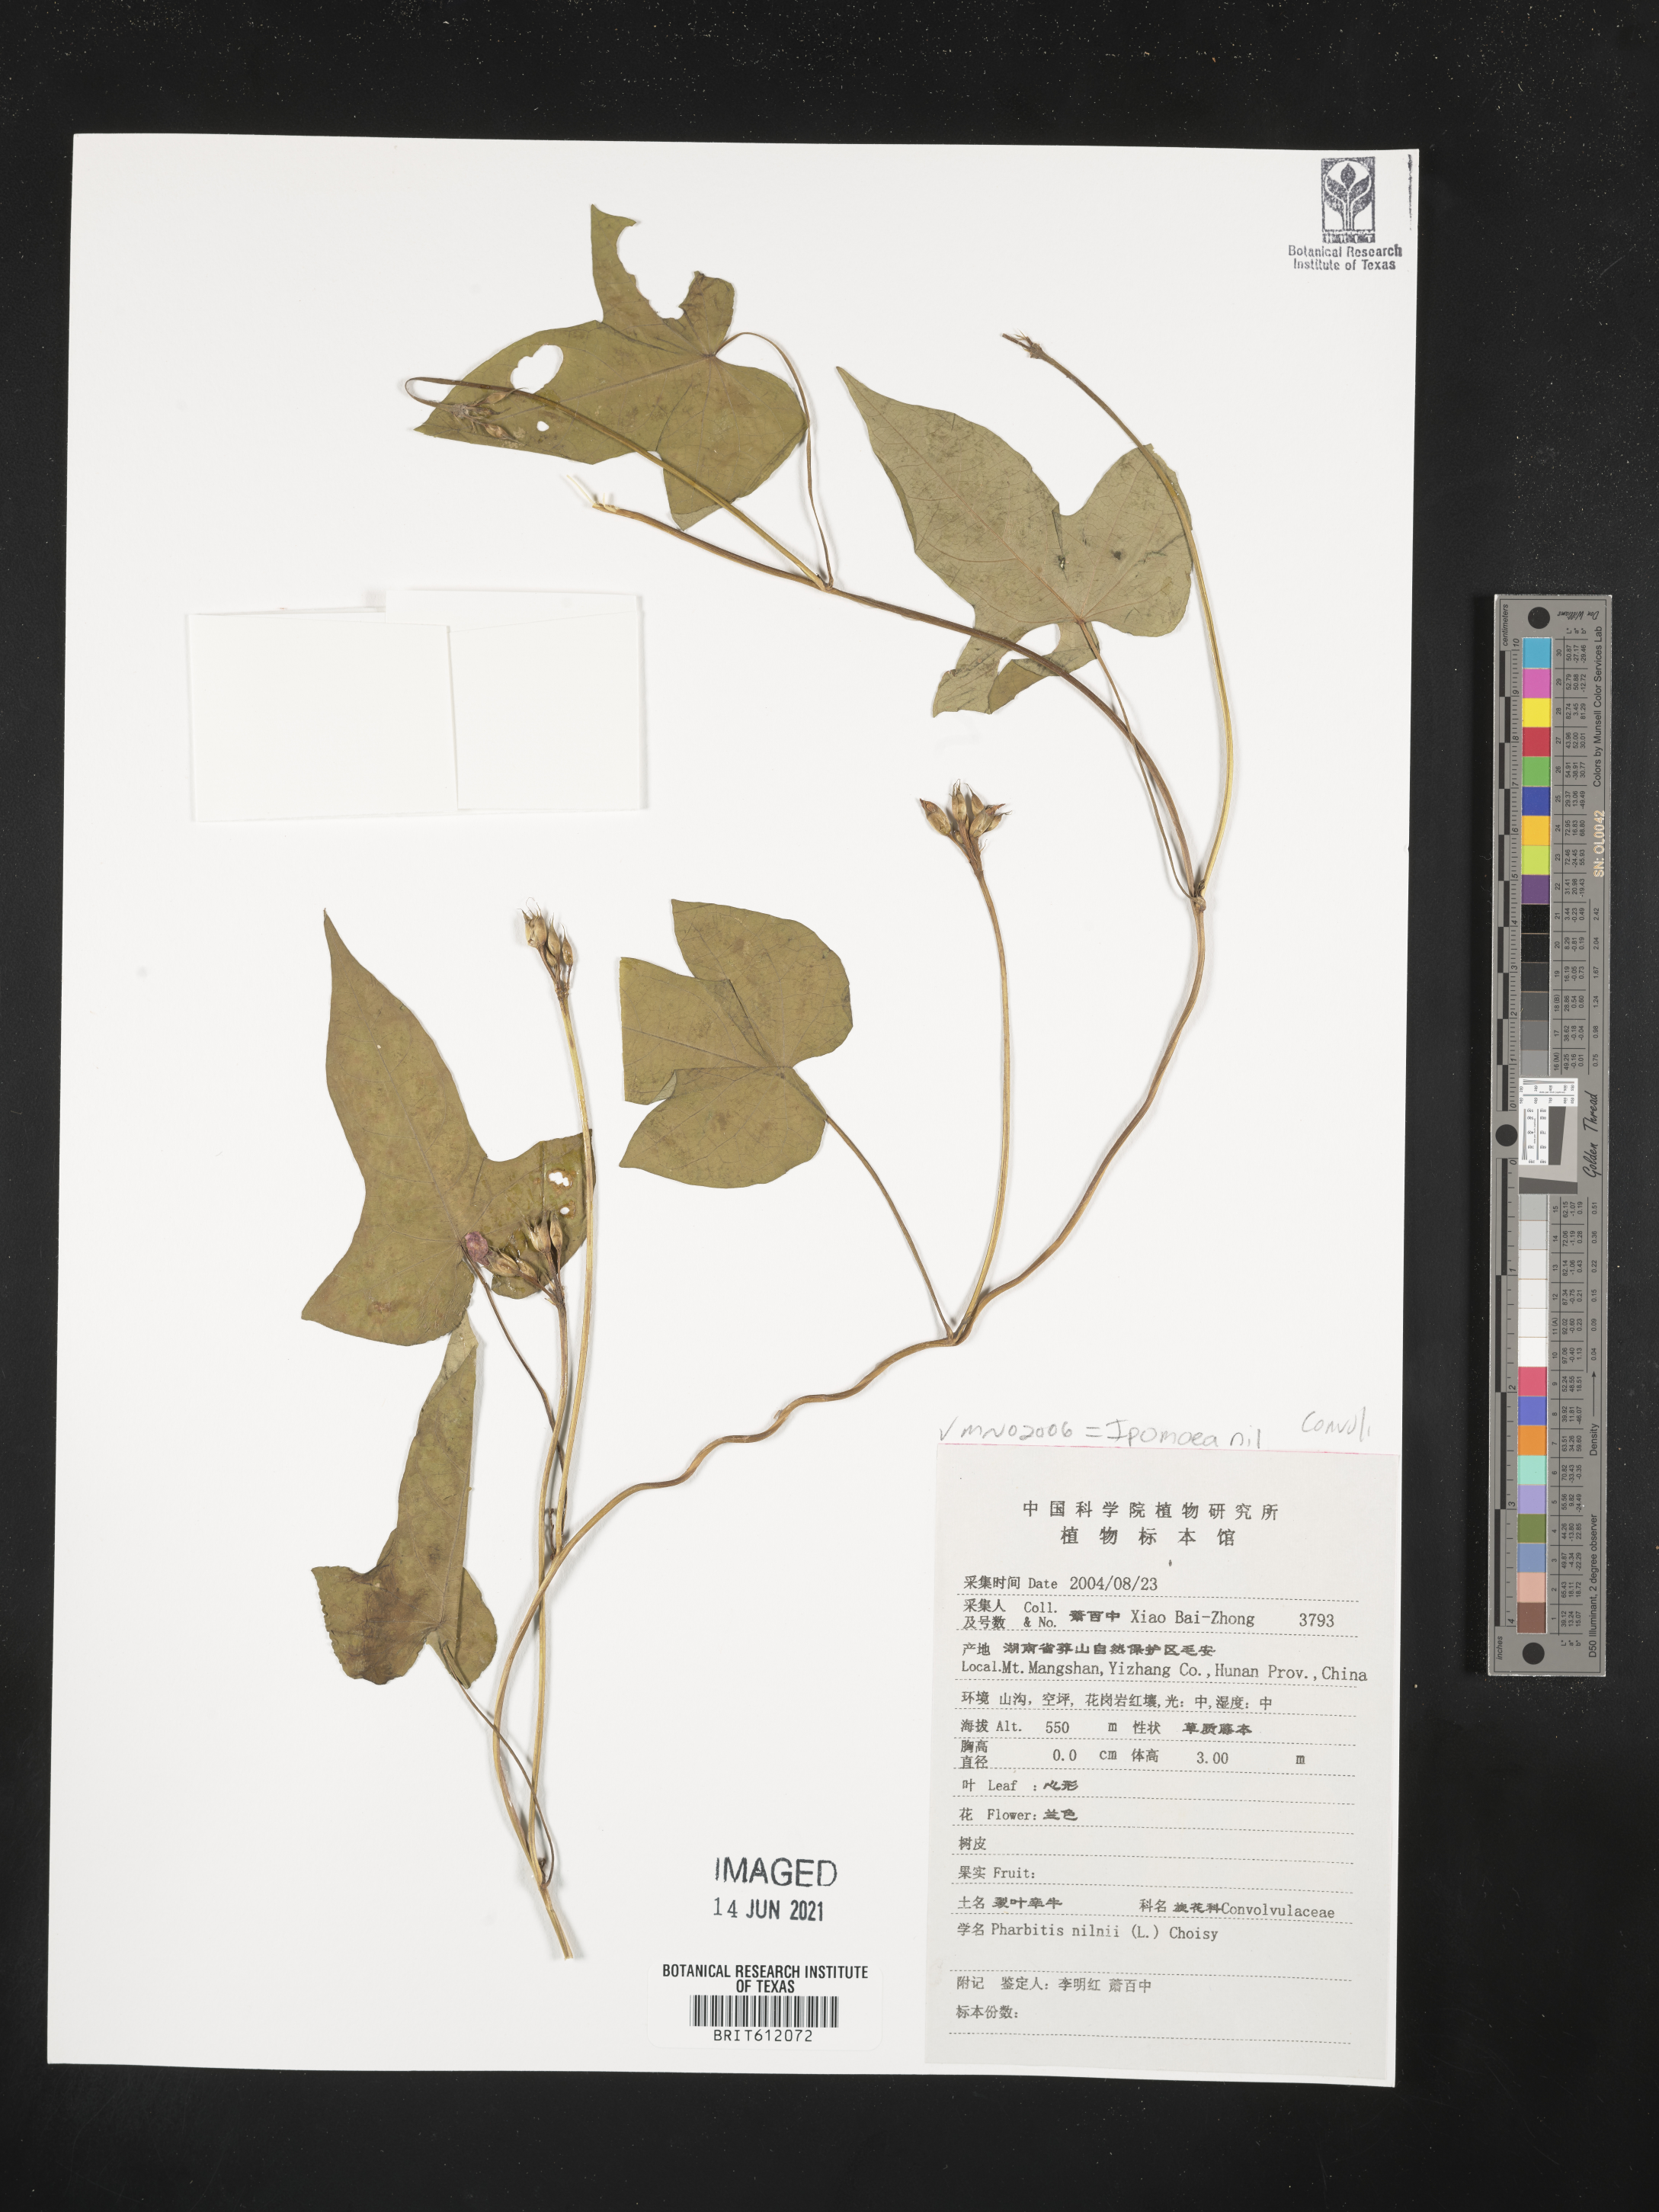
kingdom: Plantae
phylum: Tracheophyta
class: Magnoliopsida
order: Solanales
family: Convolvulaceae
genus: Ipomoea
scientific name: Ipomoea nil
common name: Japanese morning-glory
